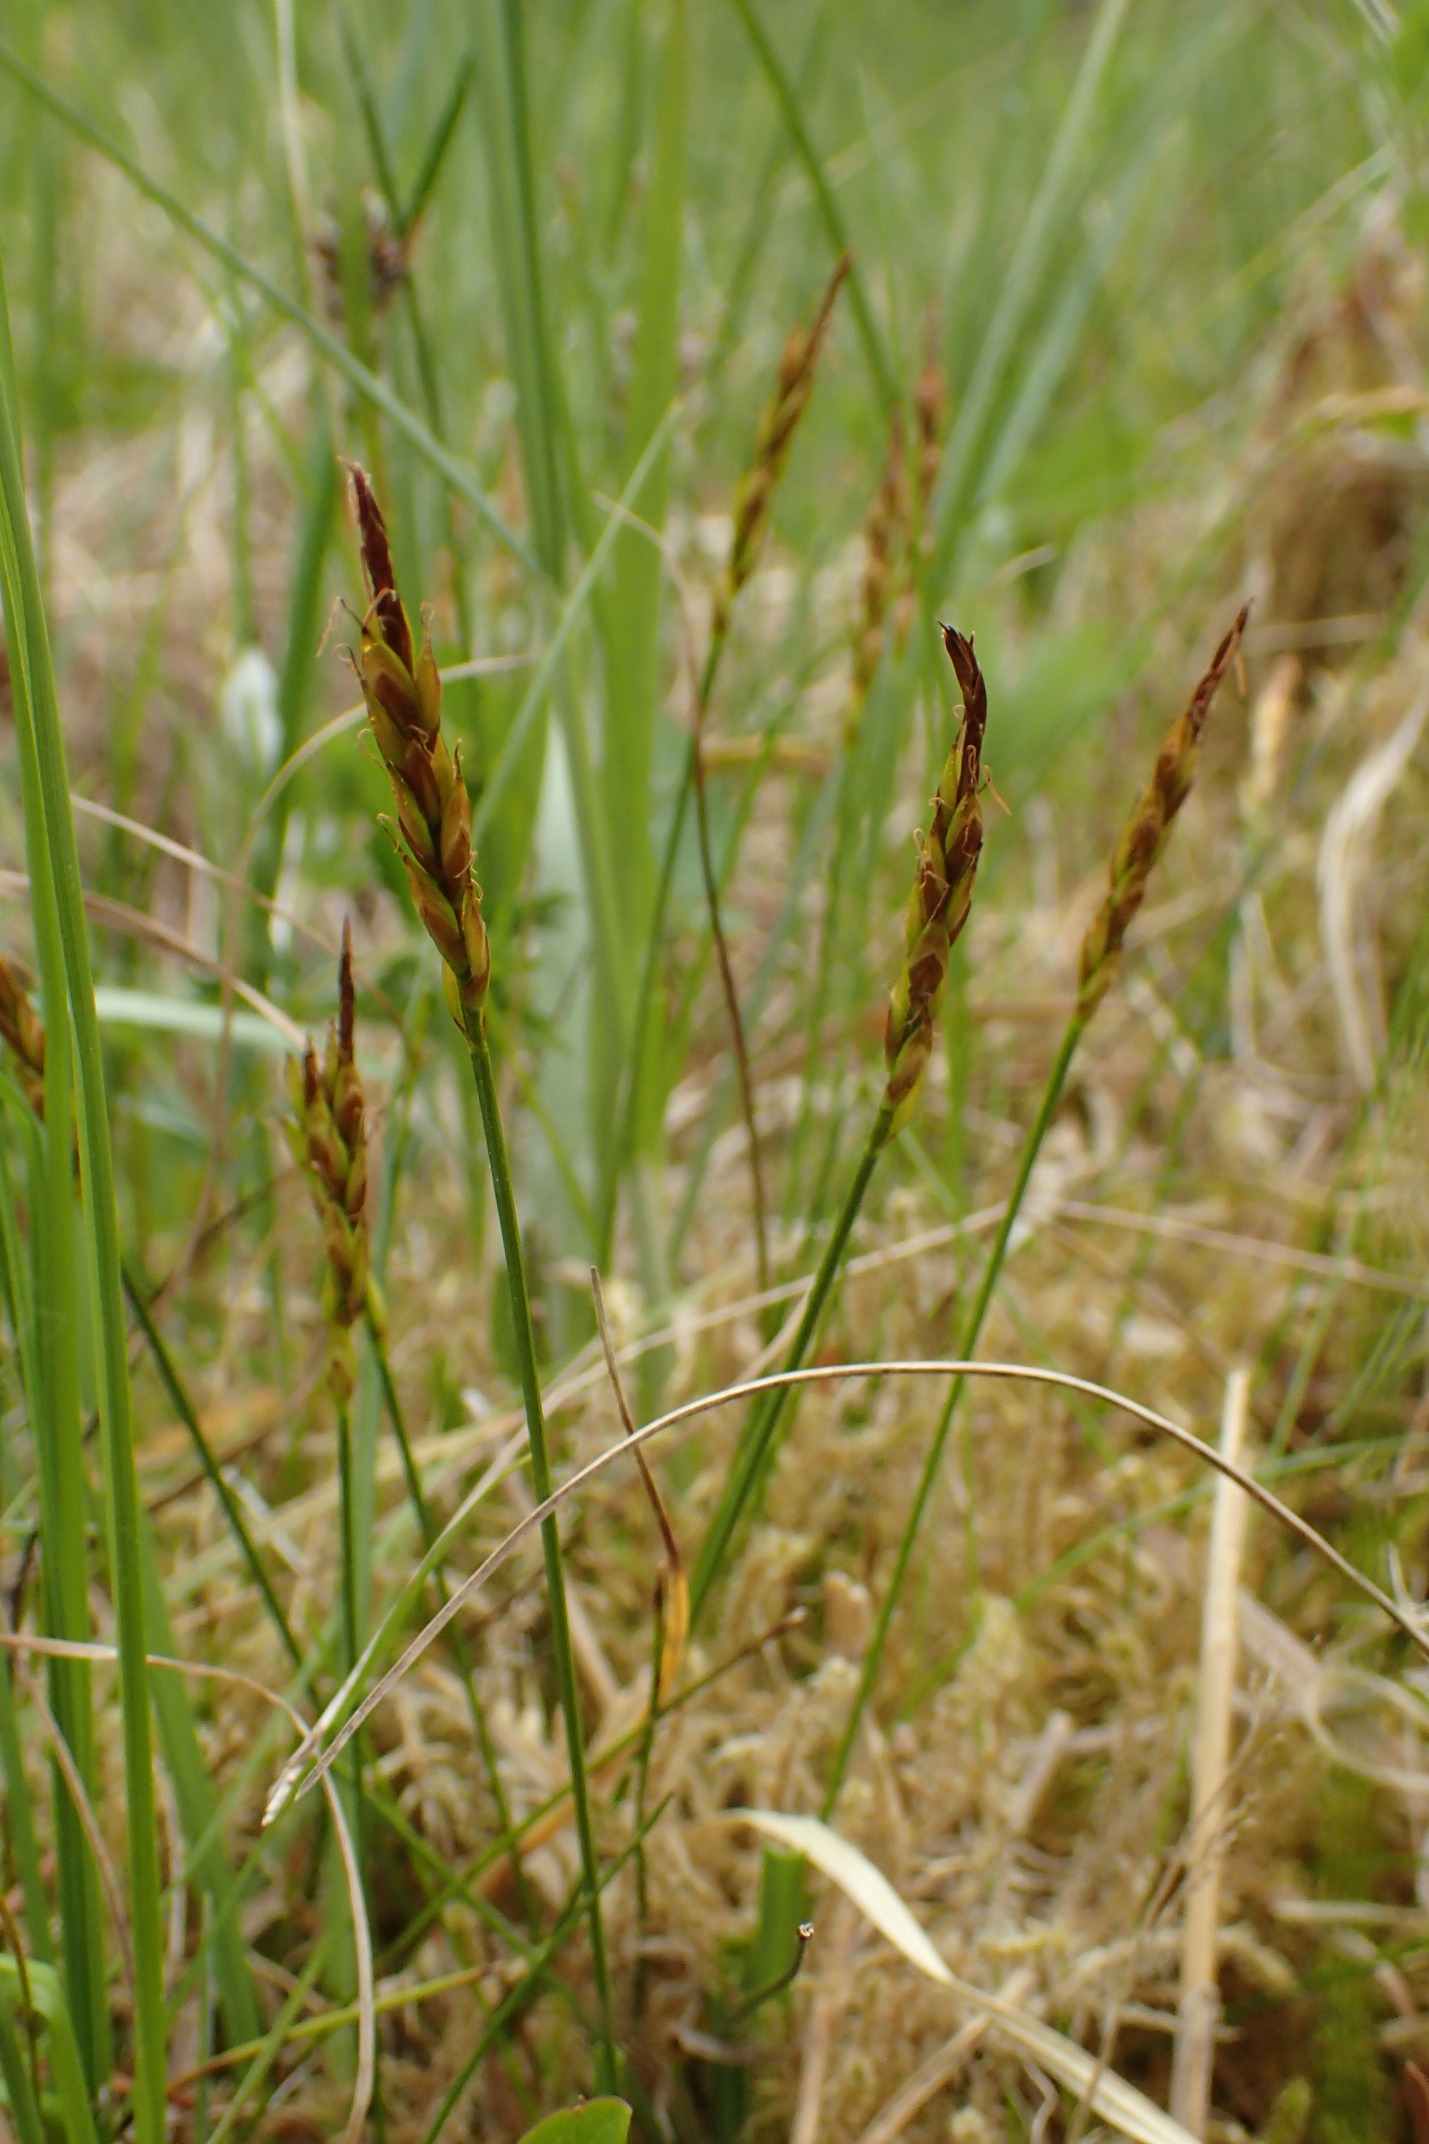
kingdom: Plantae
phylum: Tracheophyta
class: Liliopsida
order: Poales
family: Cyperaceae
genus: Carex
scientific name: Carex pulicaris
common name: Loppe-star
